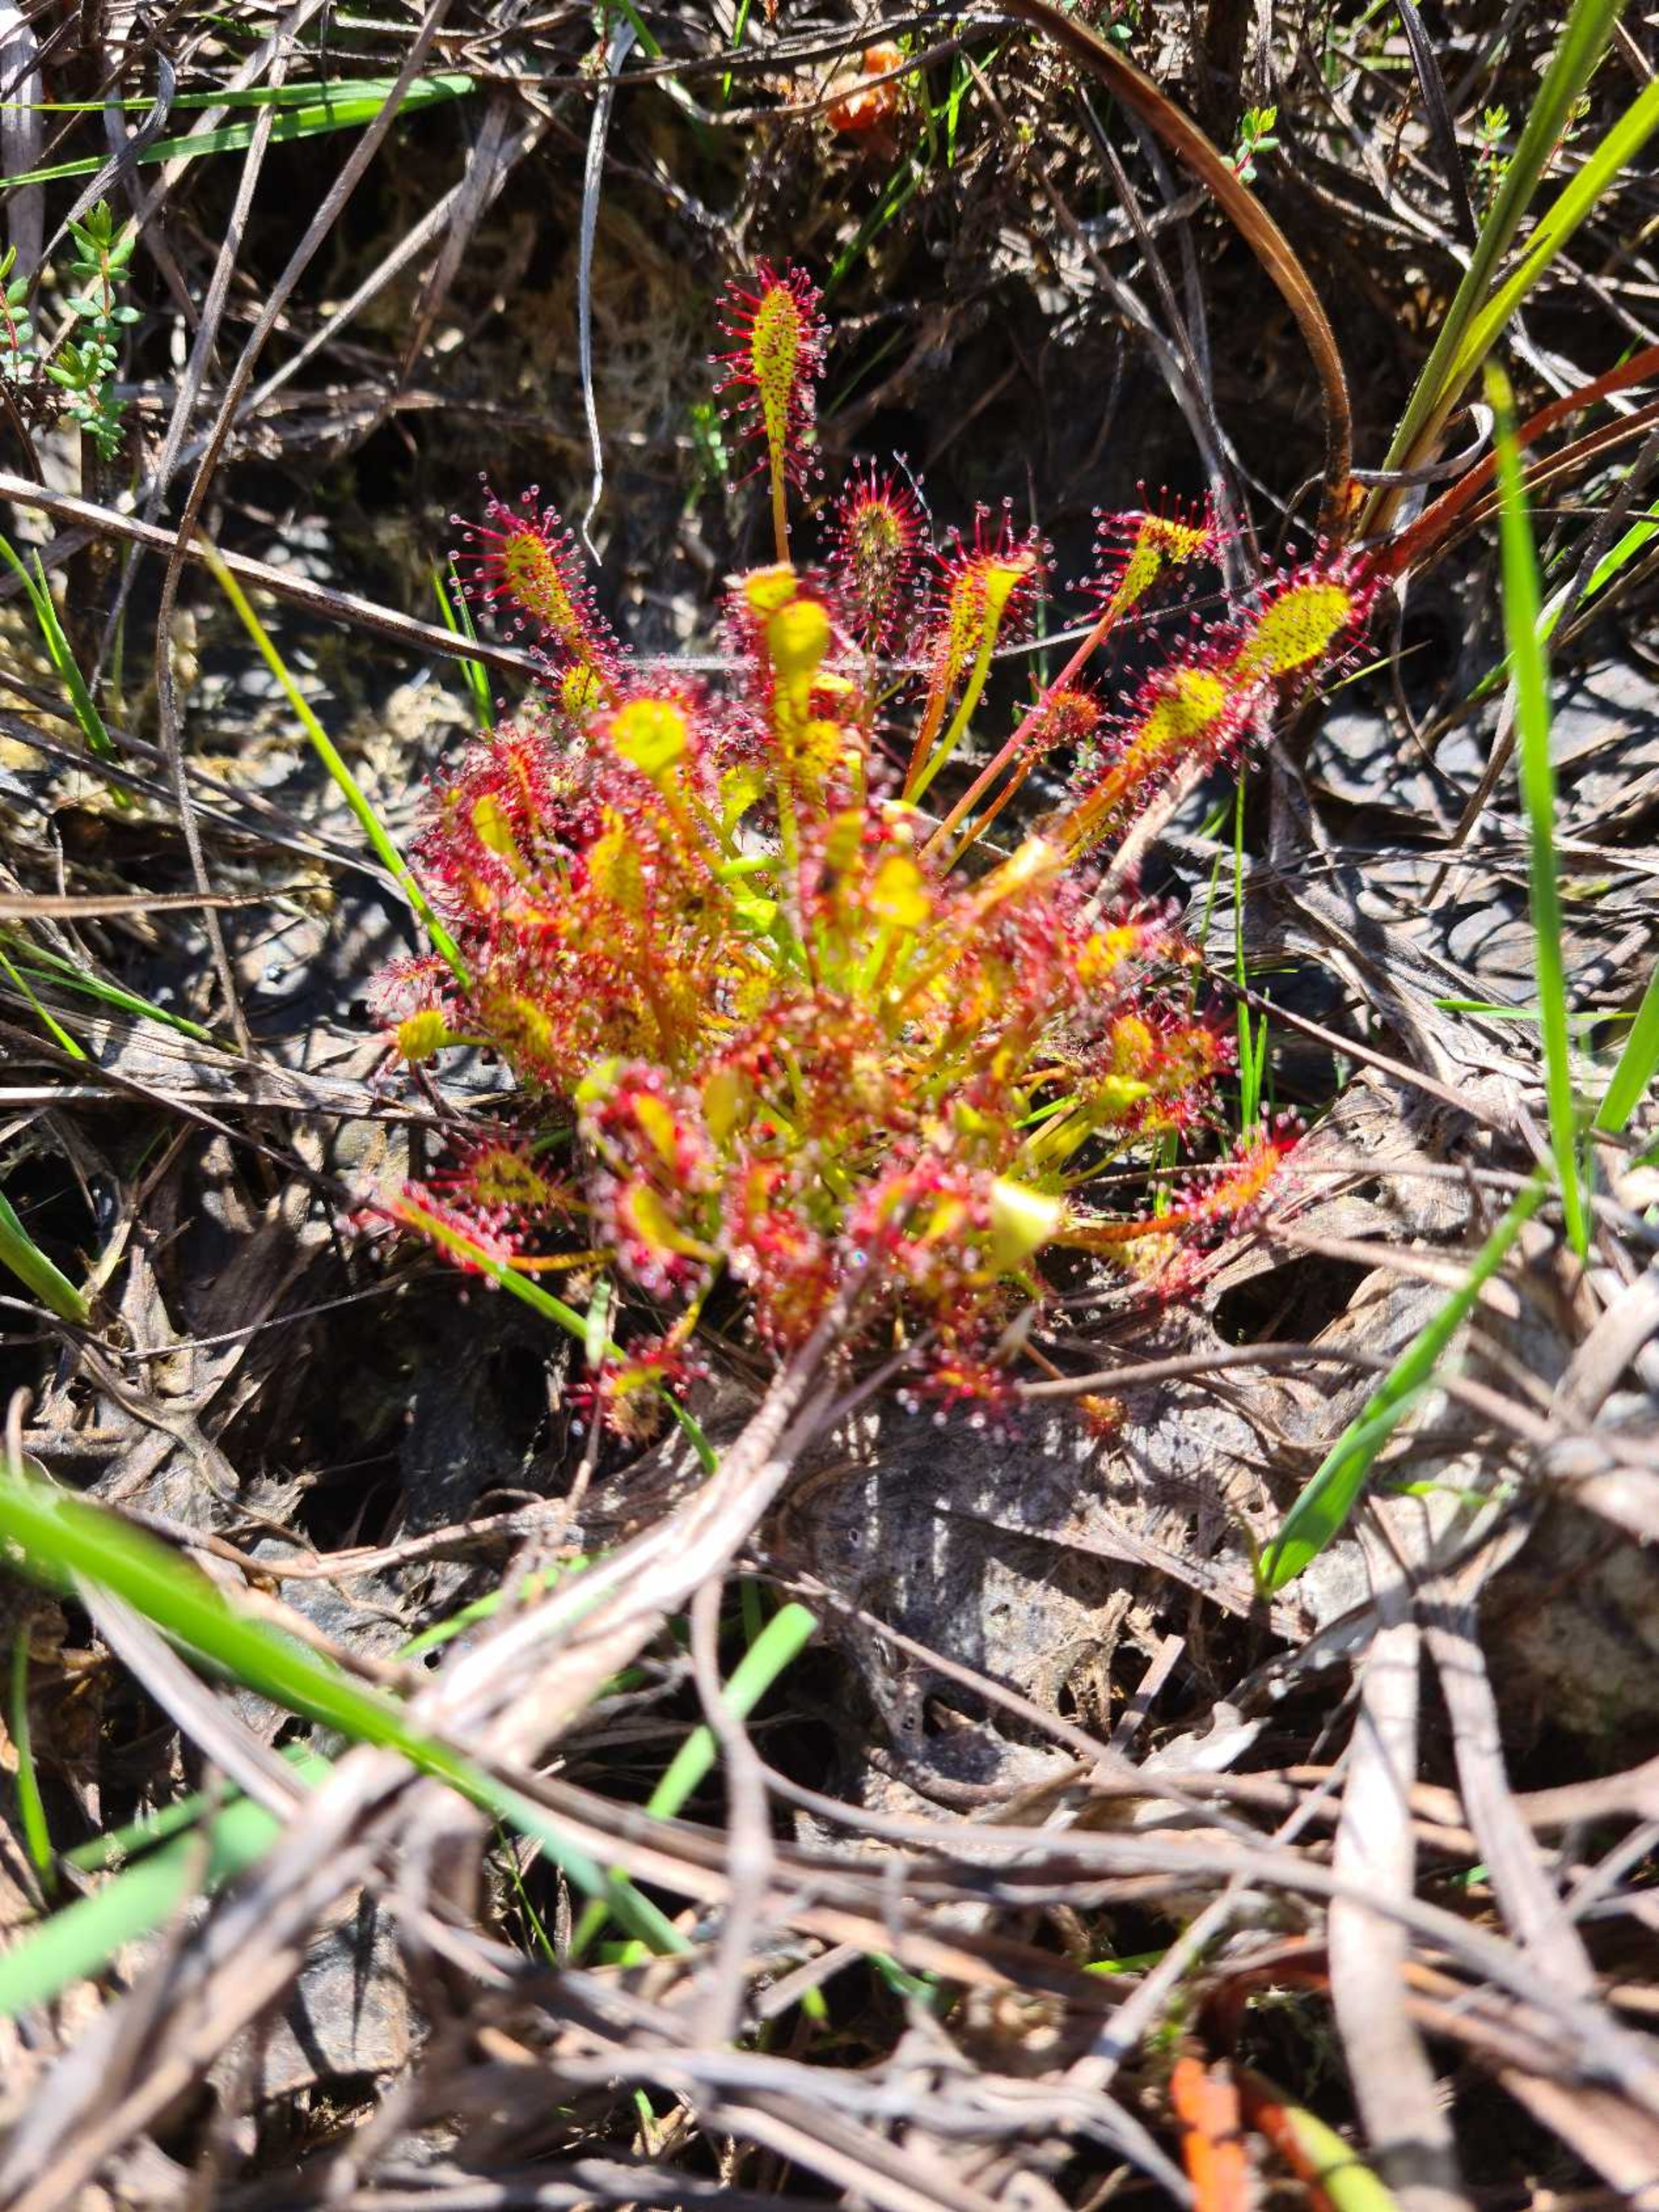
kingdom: Plantae
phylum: Tracheophyta
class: Magnoliopsida
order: Caryophyllales
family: Droseraceae
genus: Drosera
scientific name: Drosera intermedia
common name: Liden soldug
